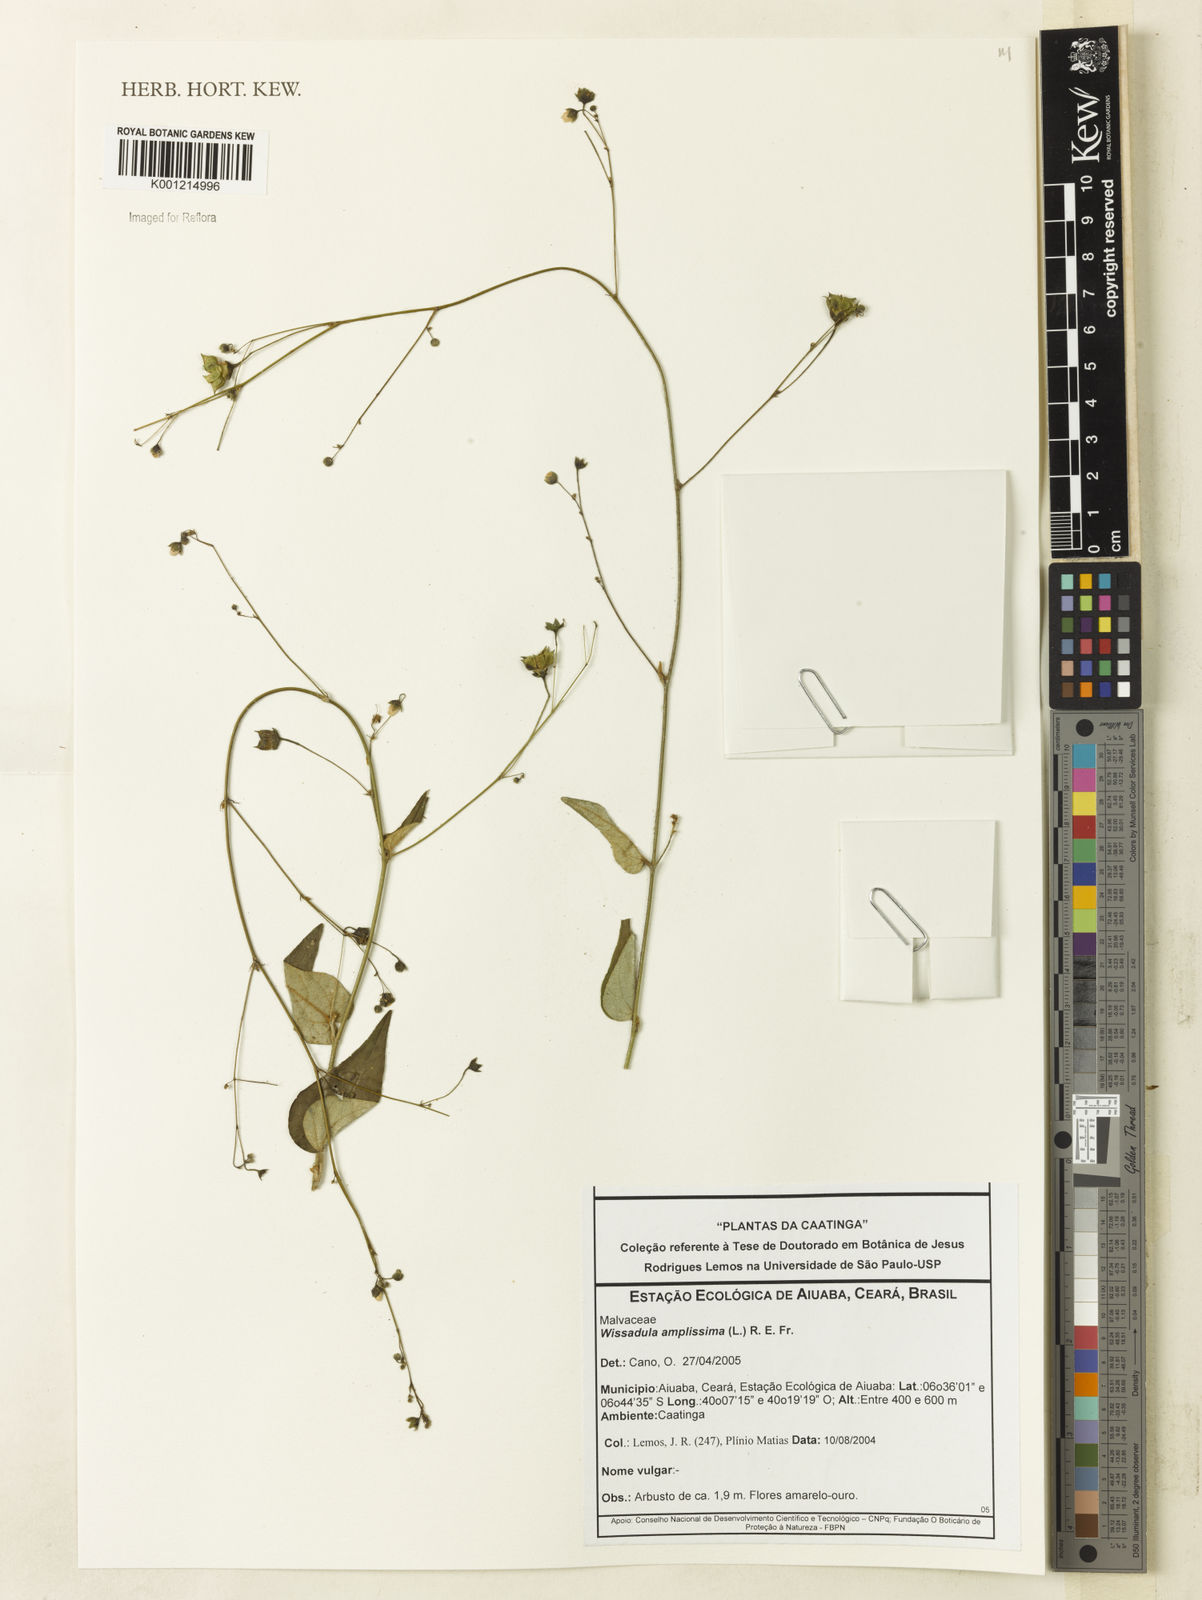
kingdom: Plantae
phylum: Tracheophyta
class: Magnoliopsida
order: Malvales
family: Malvaceae
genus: Wissadula
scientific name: Wissadula amplissima
